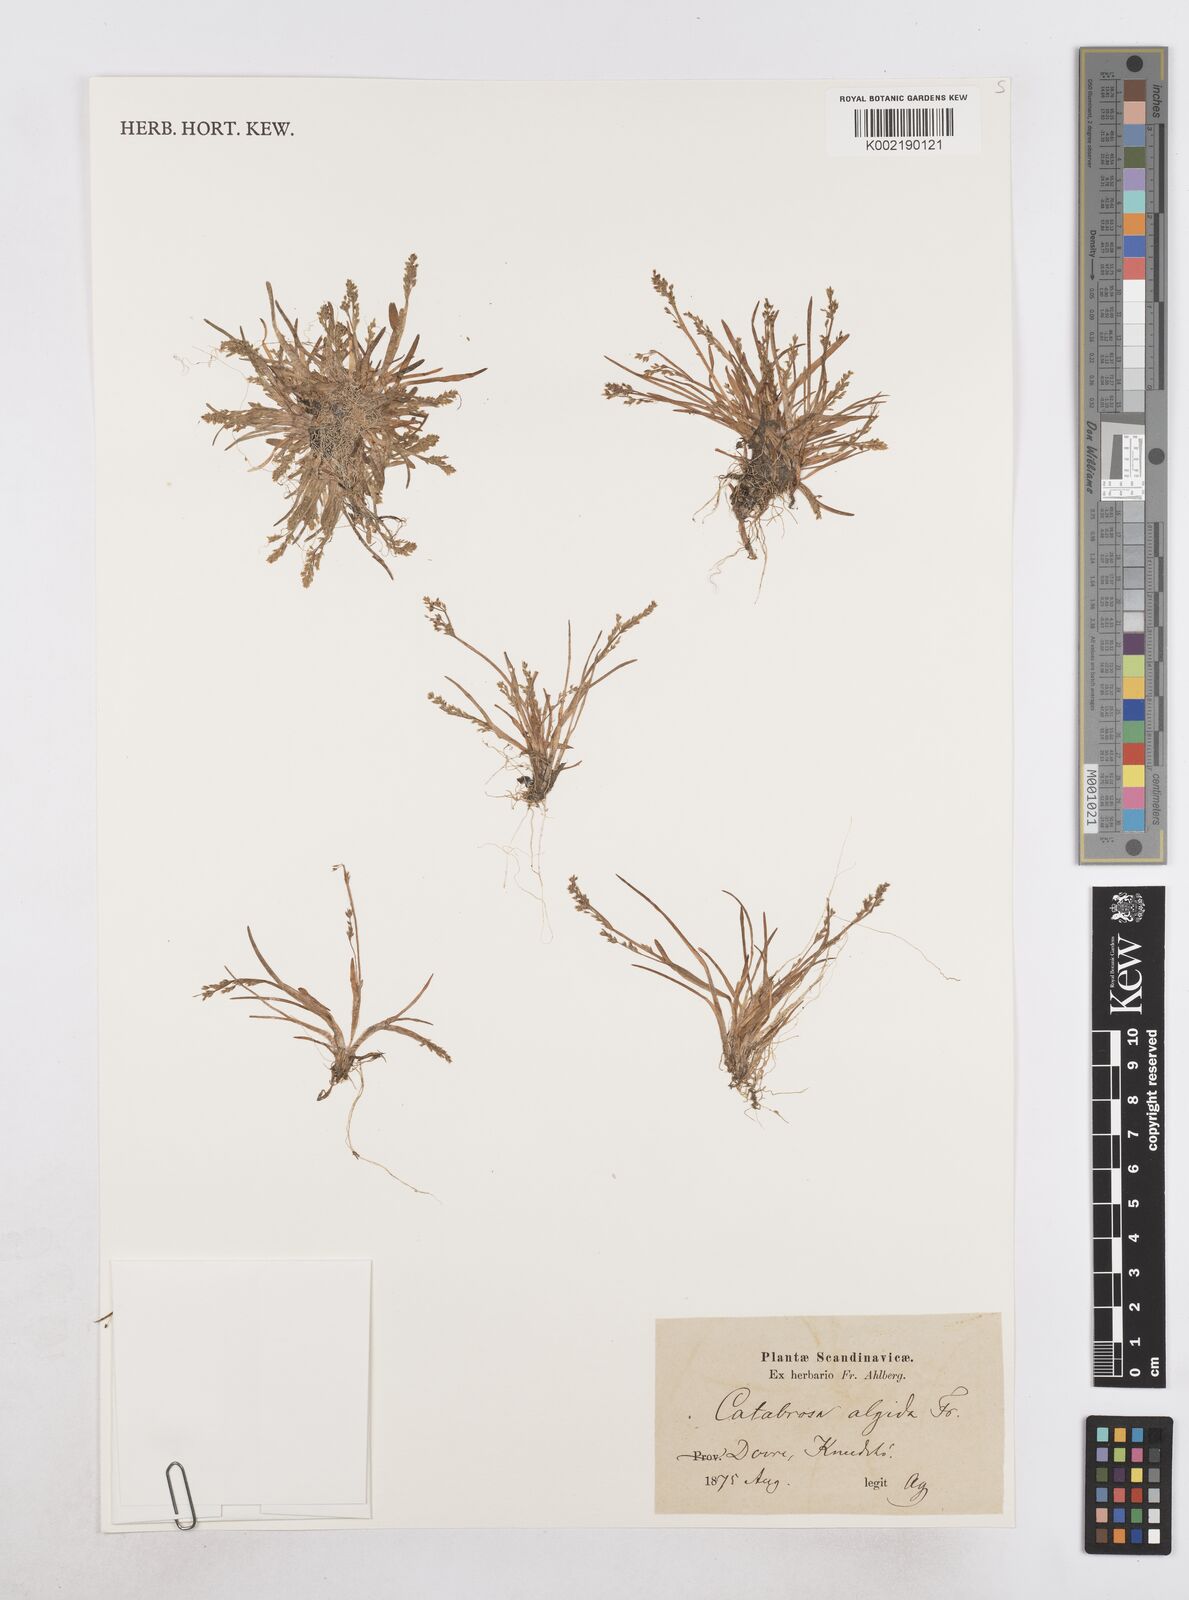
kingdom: Plantae
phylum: Tracheophyta
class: Liliopsida
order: Poales
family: Poaceae
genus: Phippsia
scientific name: Phippsia algida
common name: Ice grass
